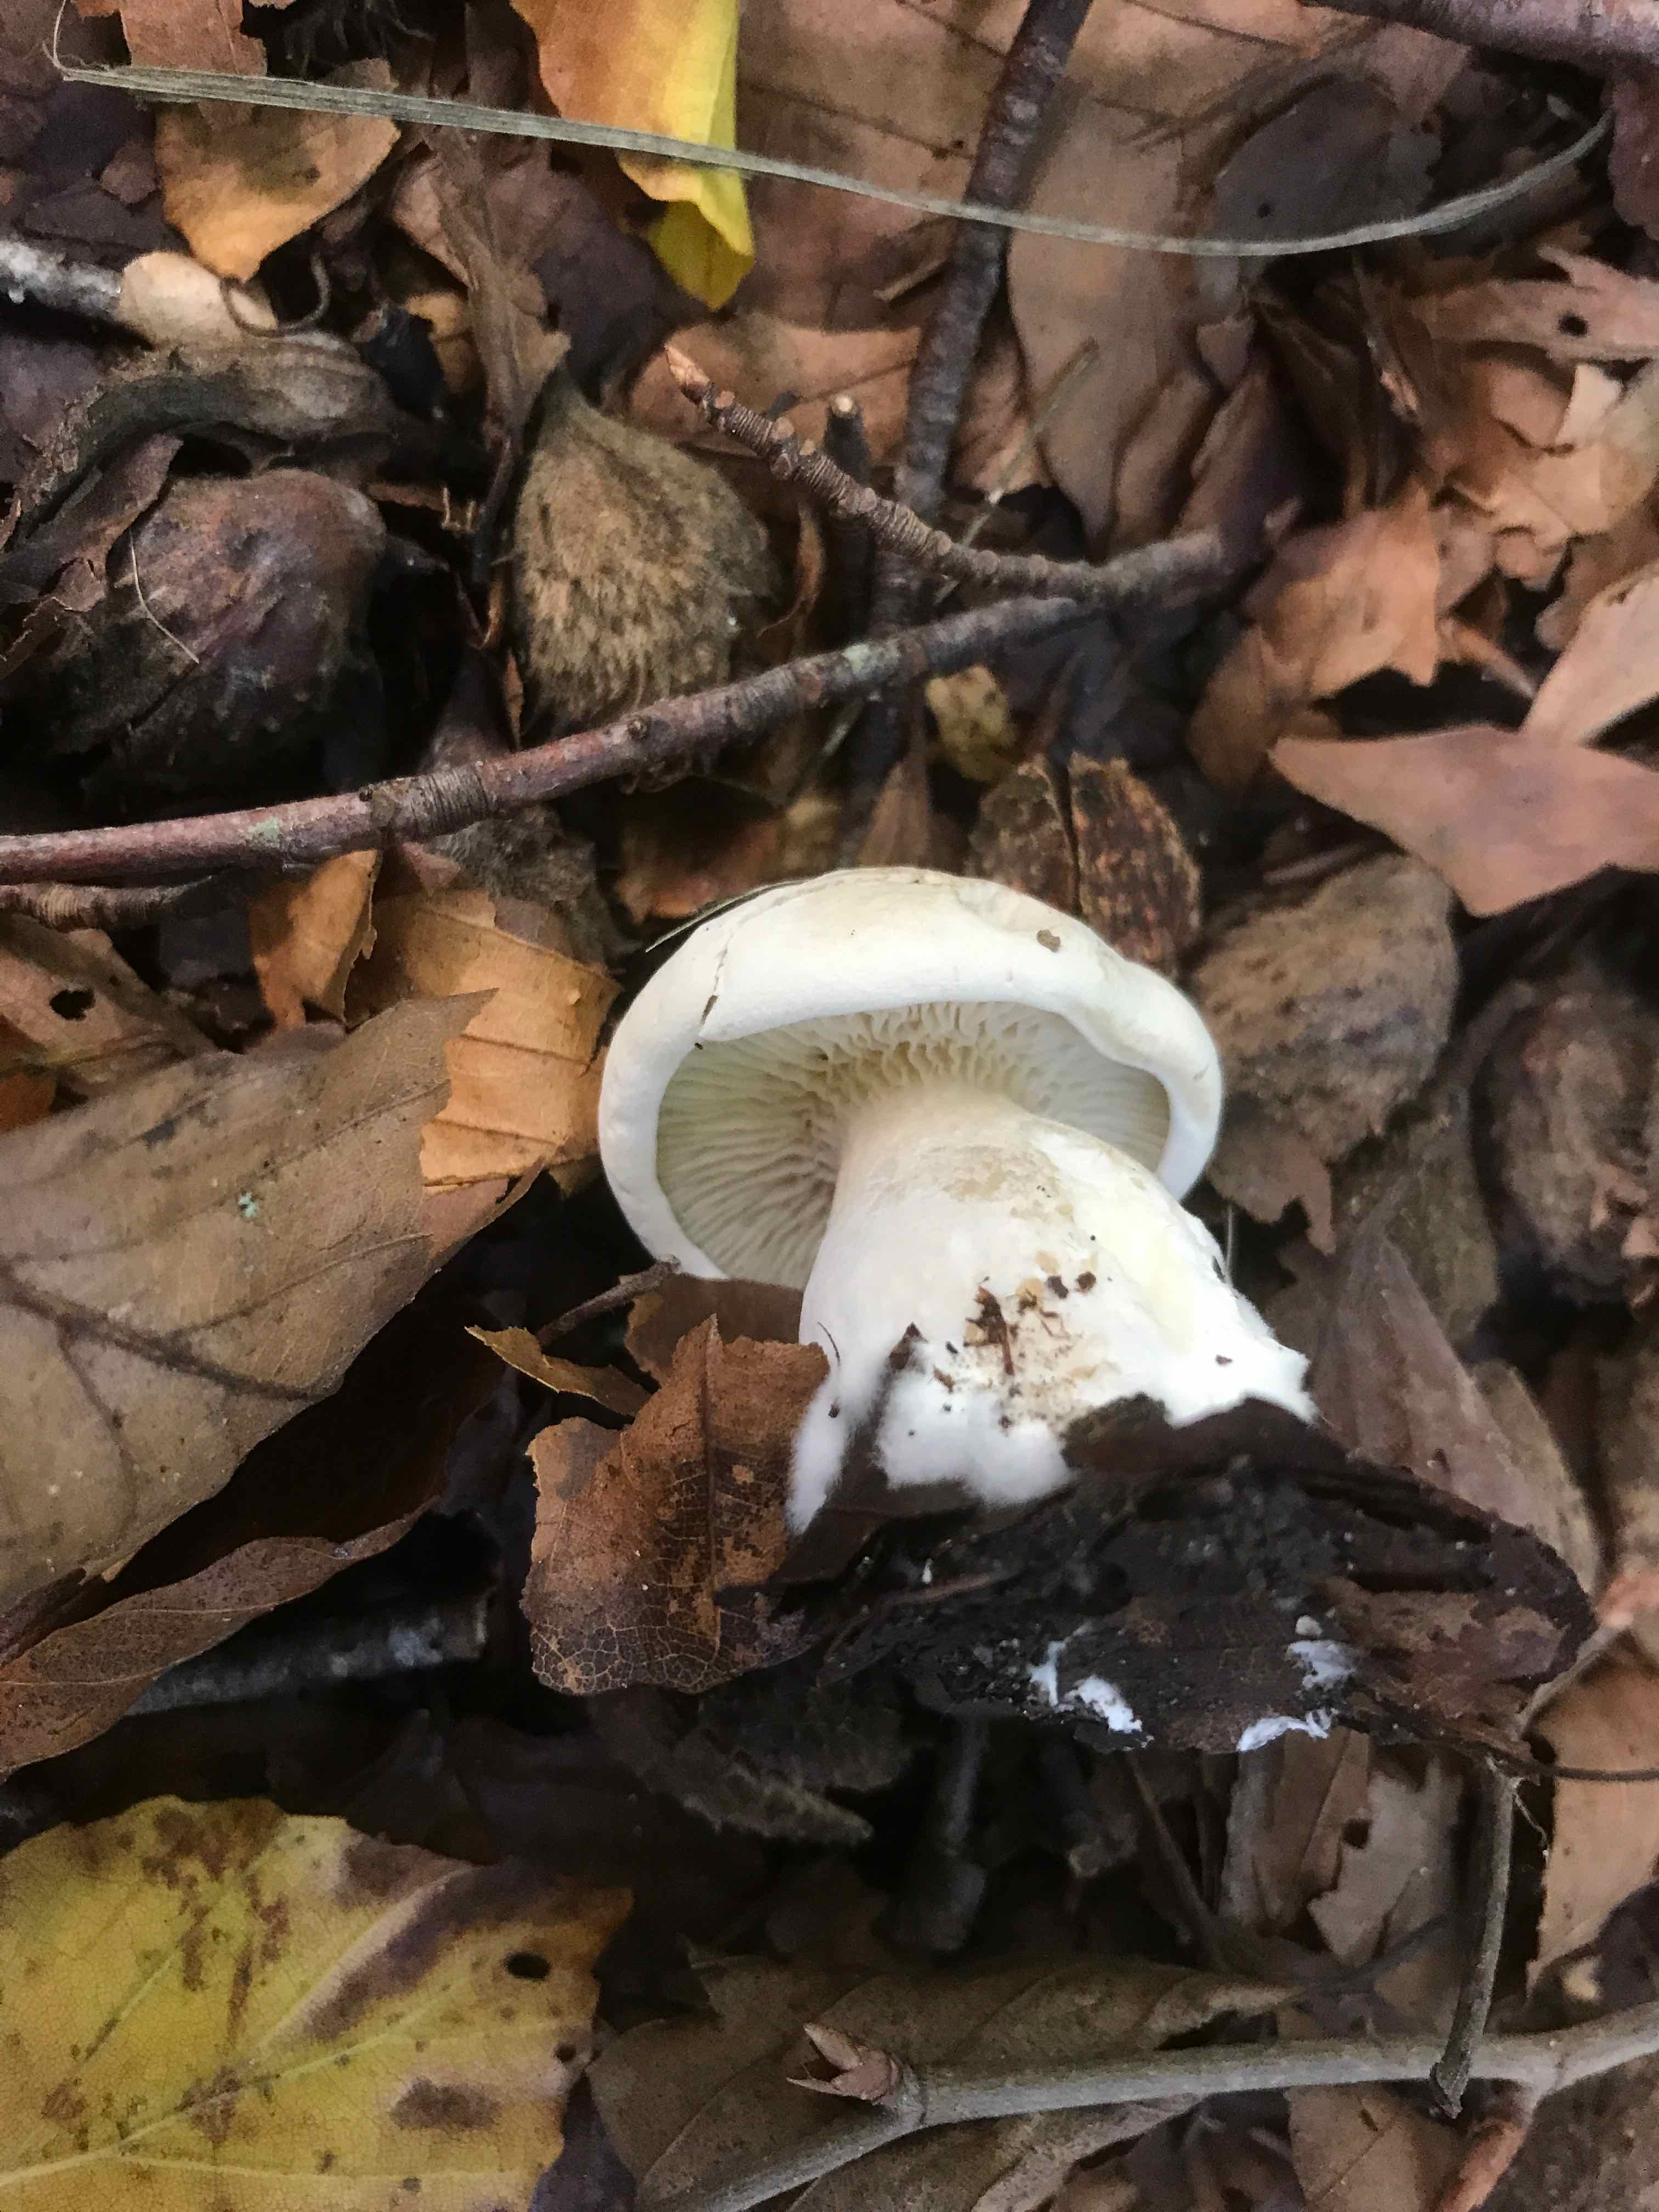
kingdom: Fungi
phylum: Basidiomycota
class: Agaricomycetes
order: Agaricales
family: Entolomataceae
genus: Clitopilus
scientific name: Clitopilus prunulus
